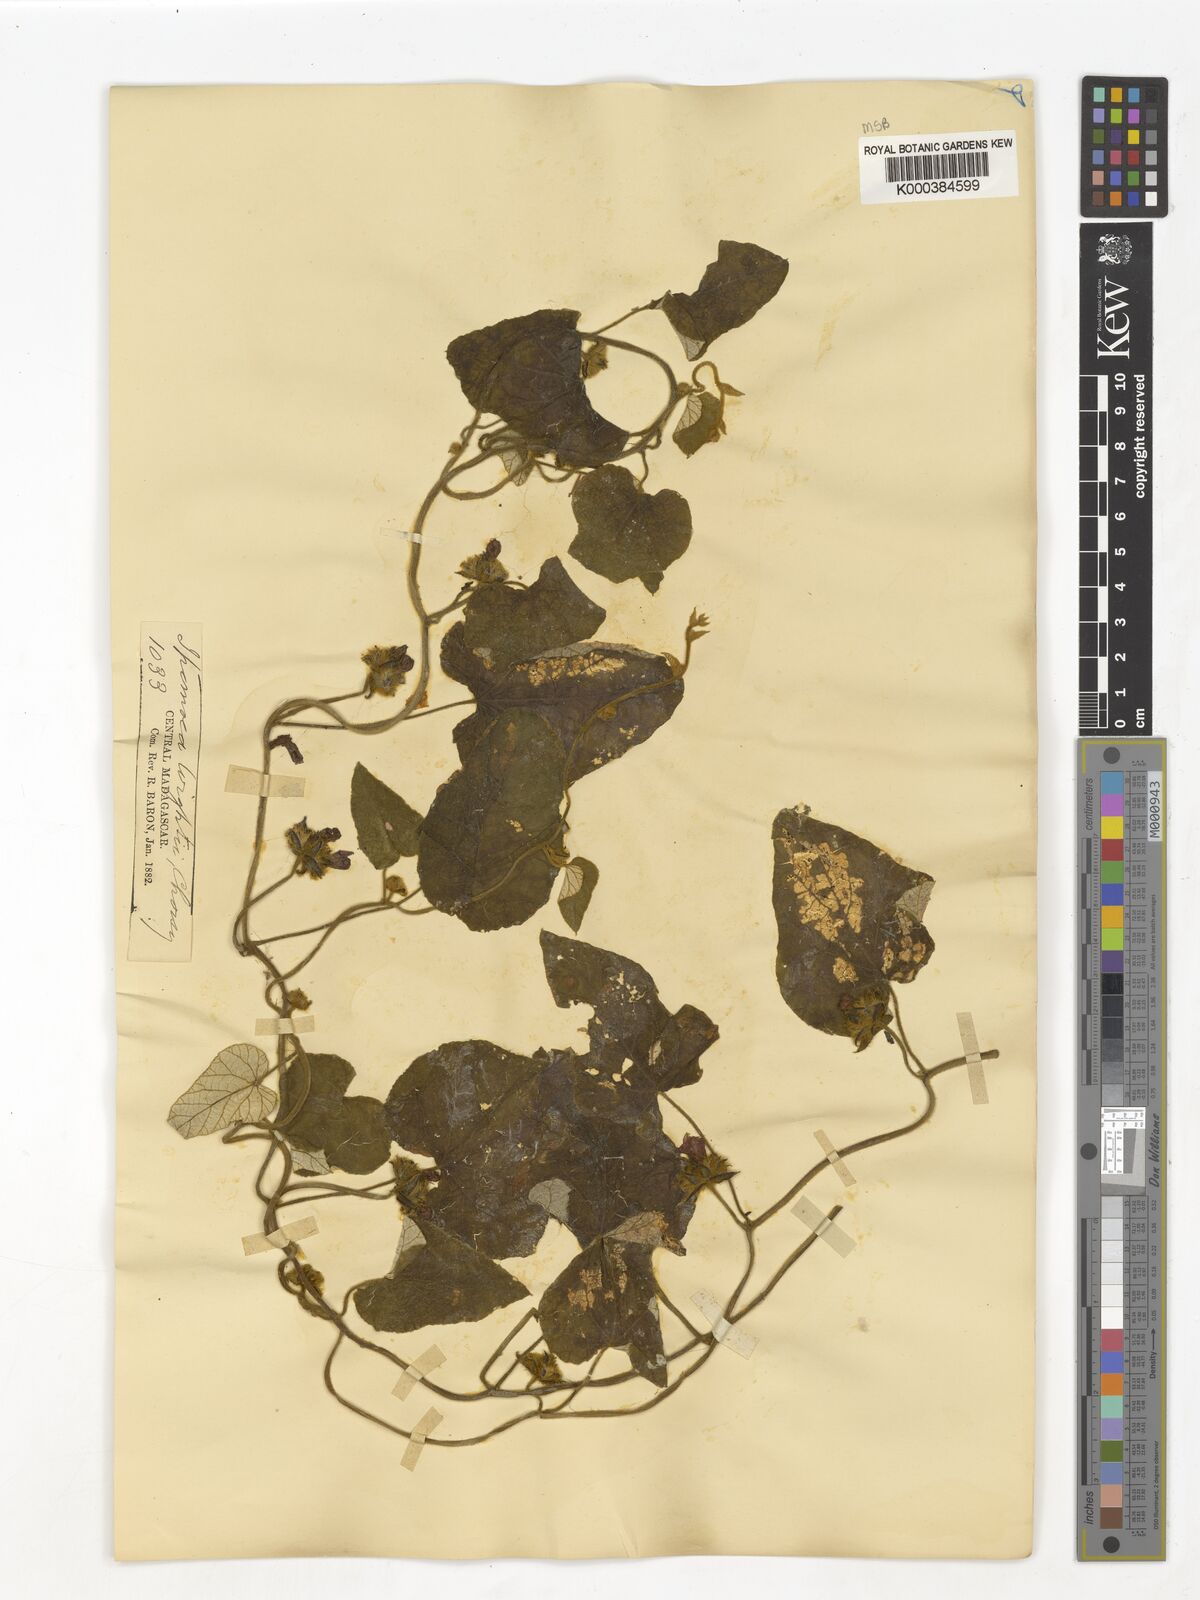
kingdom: Plantae
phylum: Tracheophyta
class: Magnoliopsida
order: Solanales
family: Convolvulaceae
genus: Ipomoea
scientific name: Ipomoea wightii
